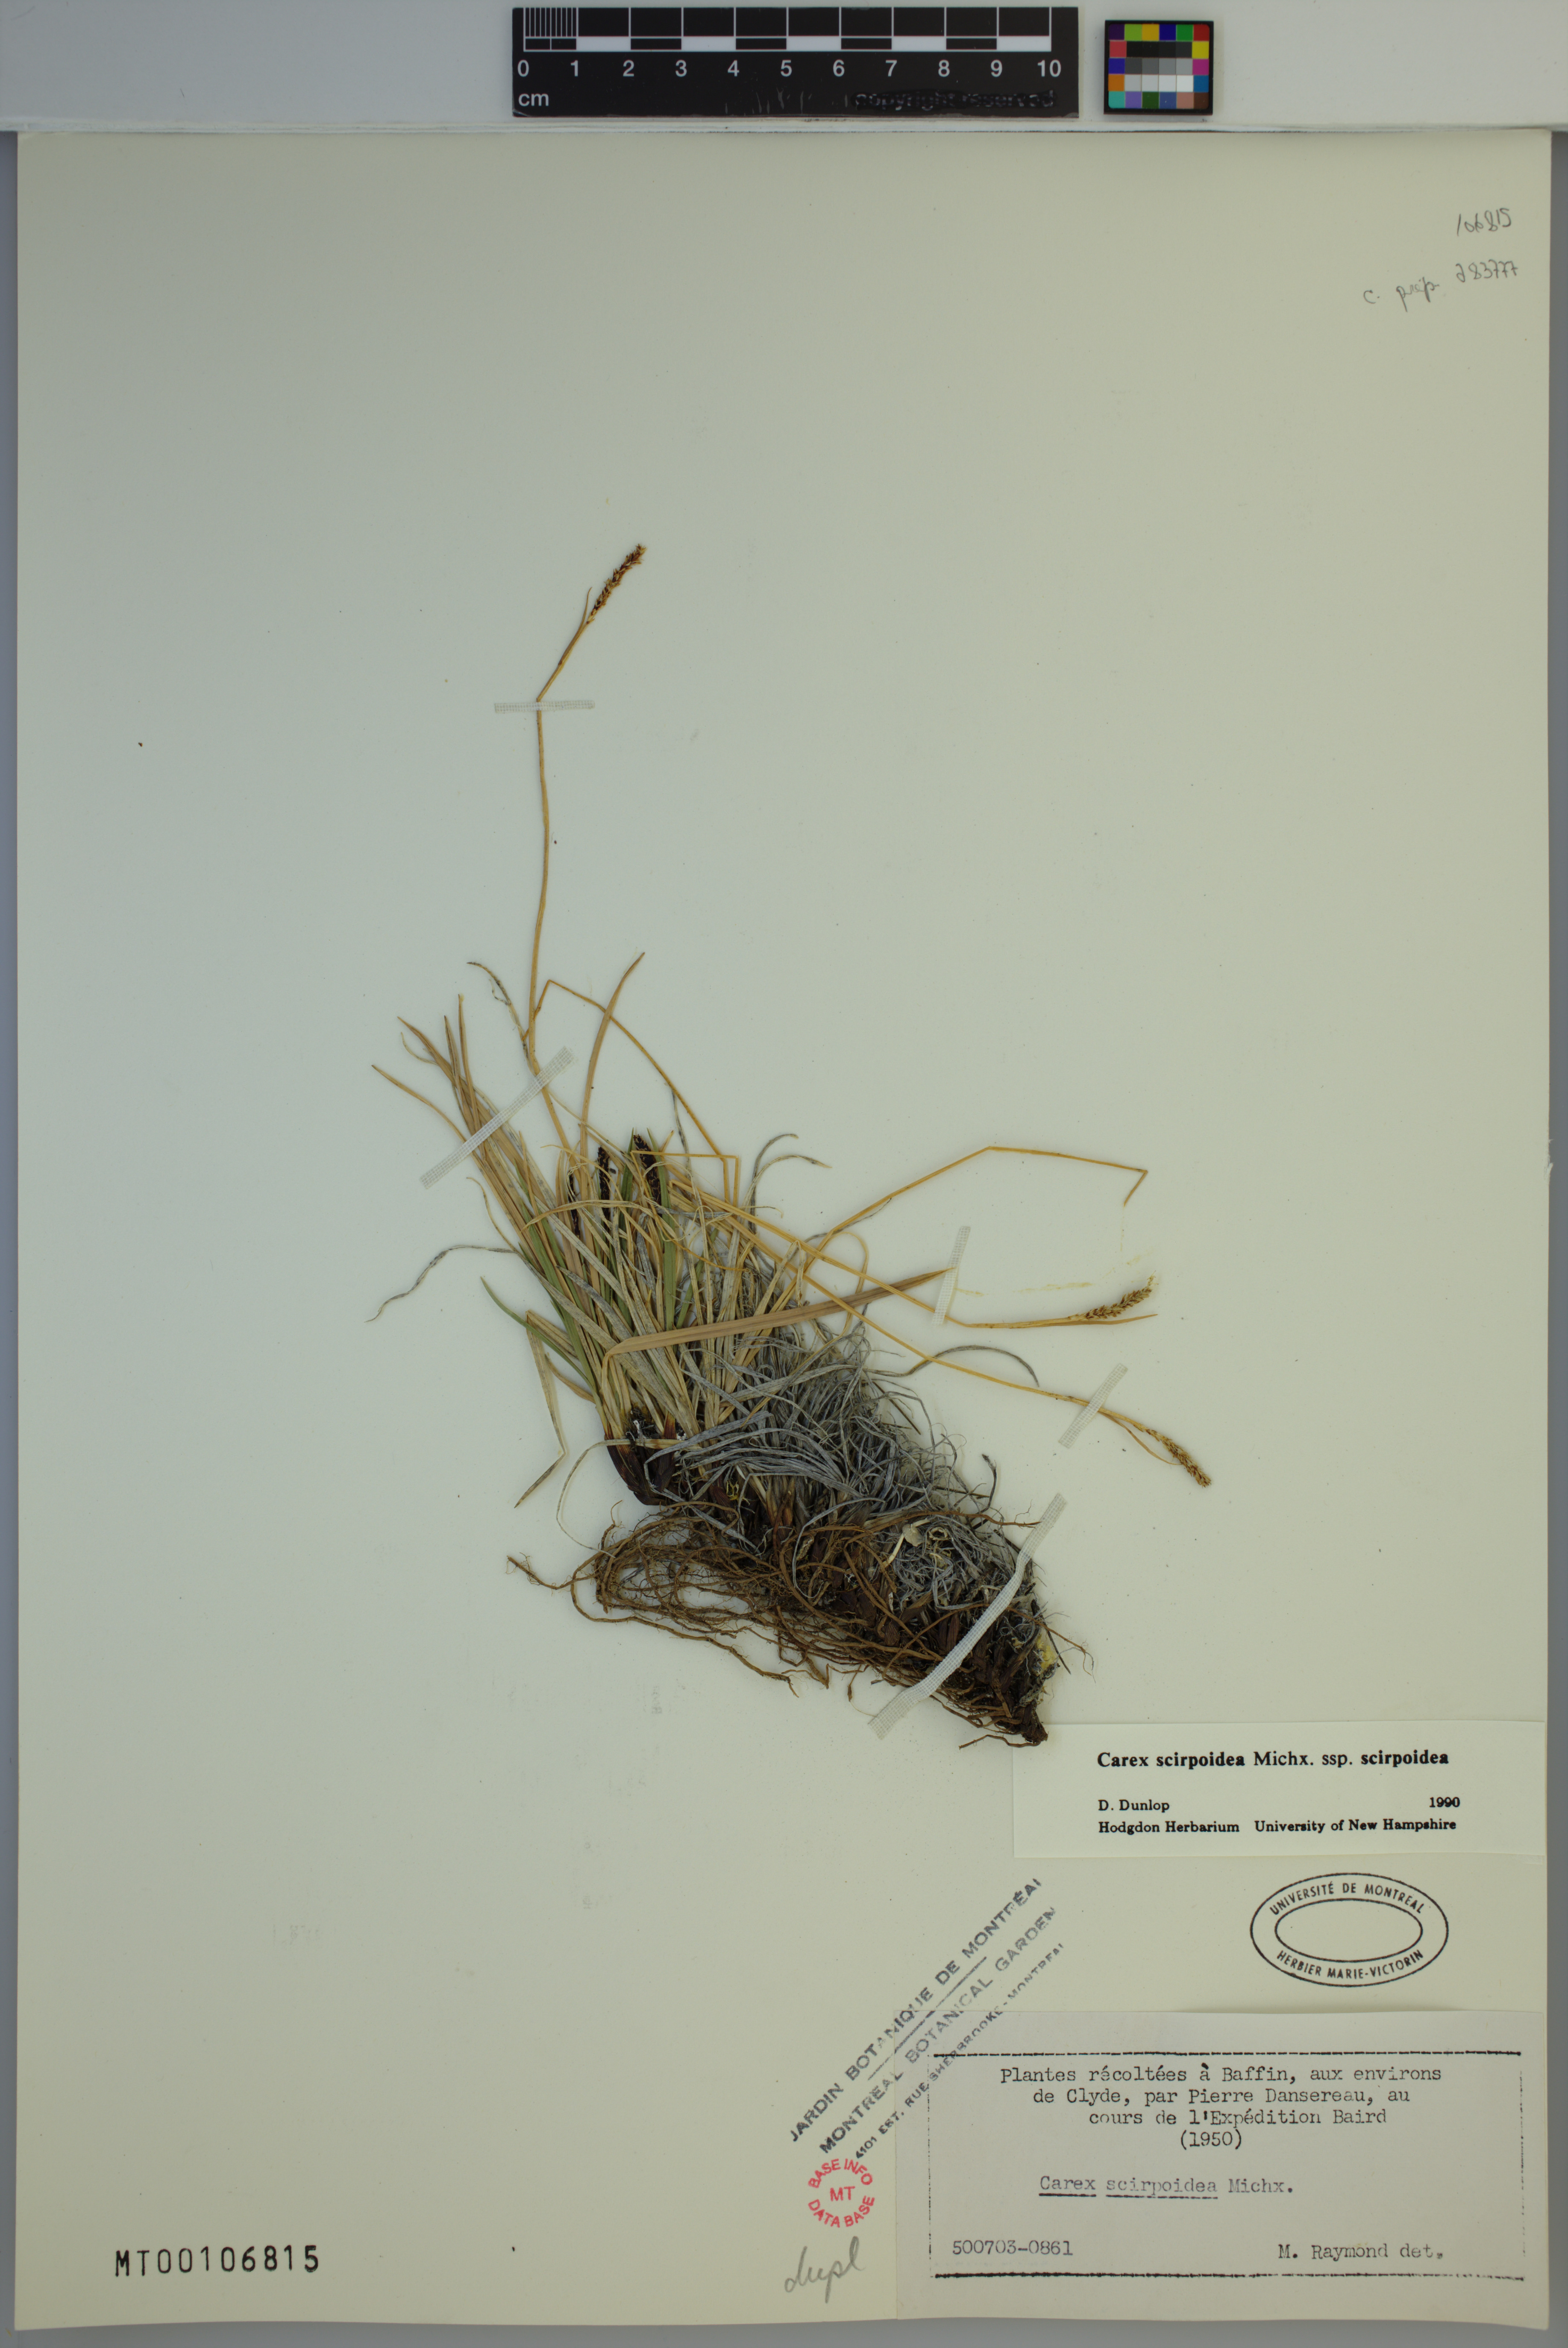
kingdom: Plantae
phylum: Tracheophyta
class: Liliopsida
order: Poales
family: Cyperaceae
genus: Carex
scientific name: Carex scirpoidea
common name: Canada single-spike sedge
